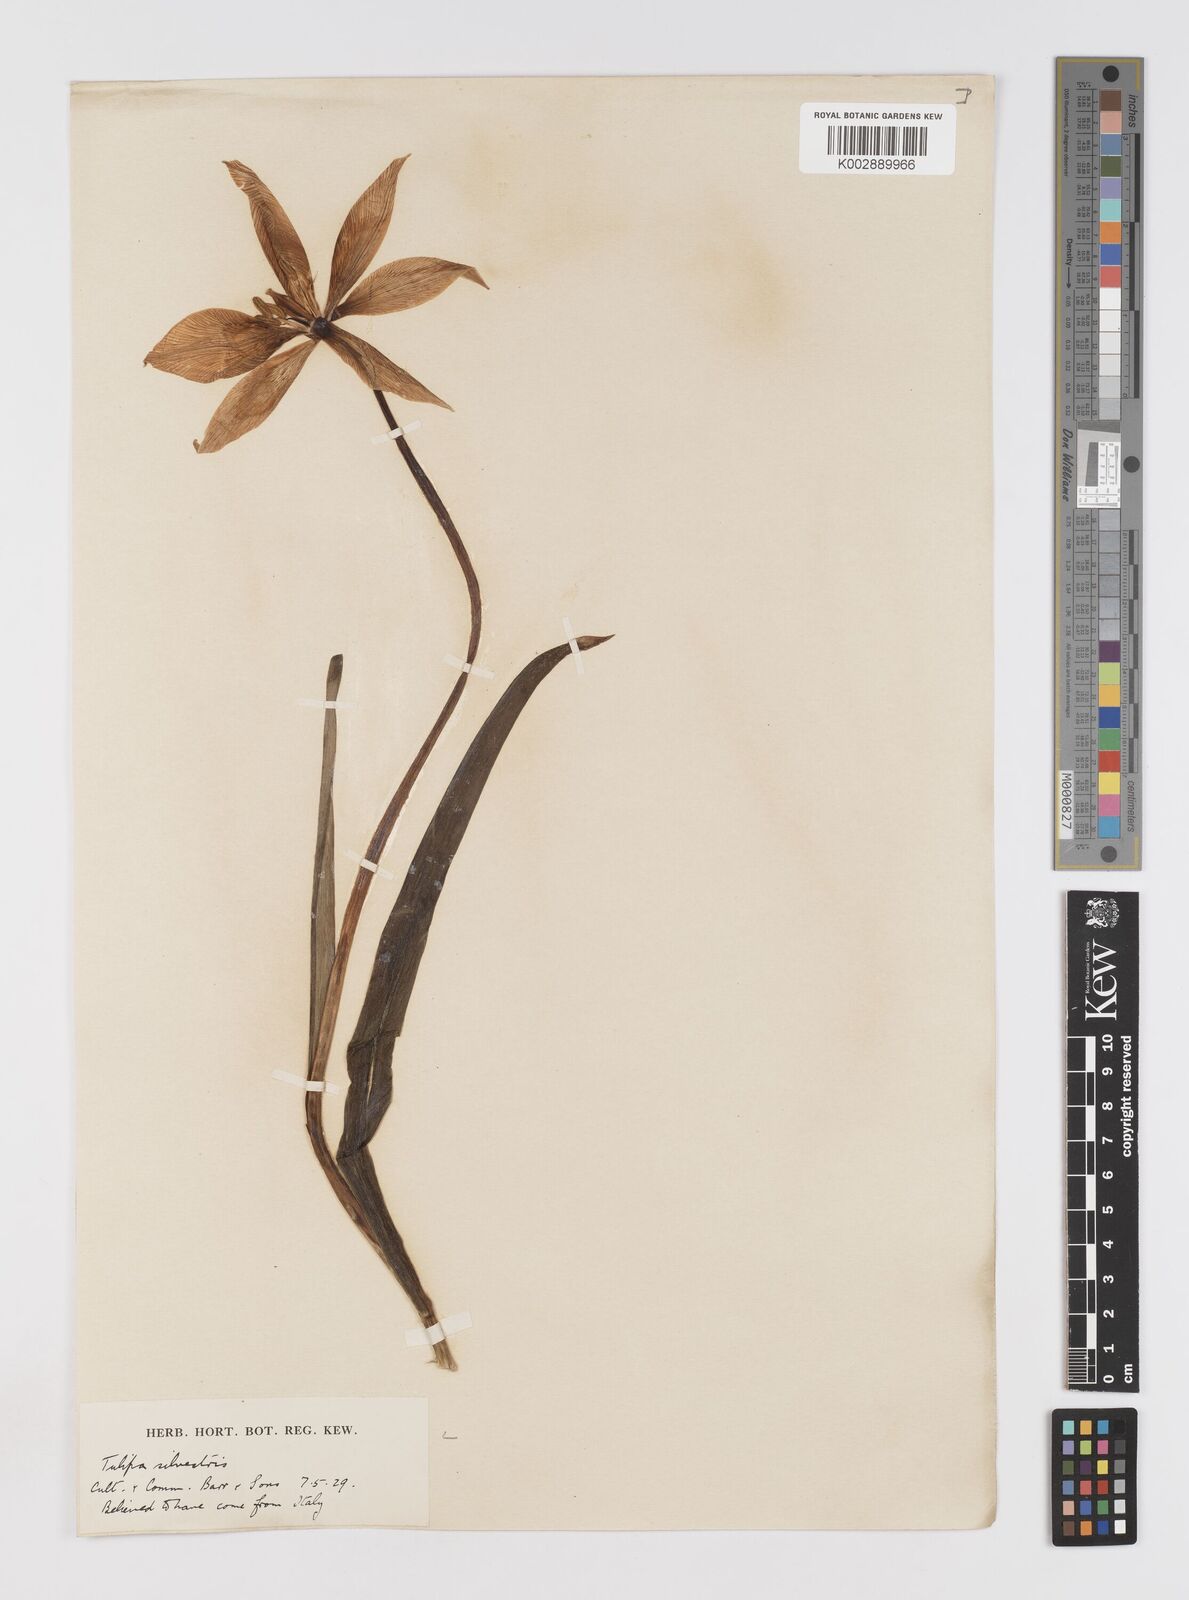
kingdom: Plantae
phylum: Tracheophyta
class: Liliopsida
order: Liliales
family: Liliaceae
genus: Tulipa
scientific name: Tulipa sylvestris
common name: Wild tulip
